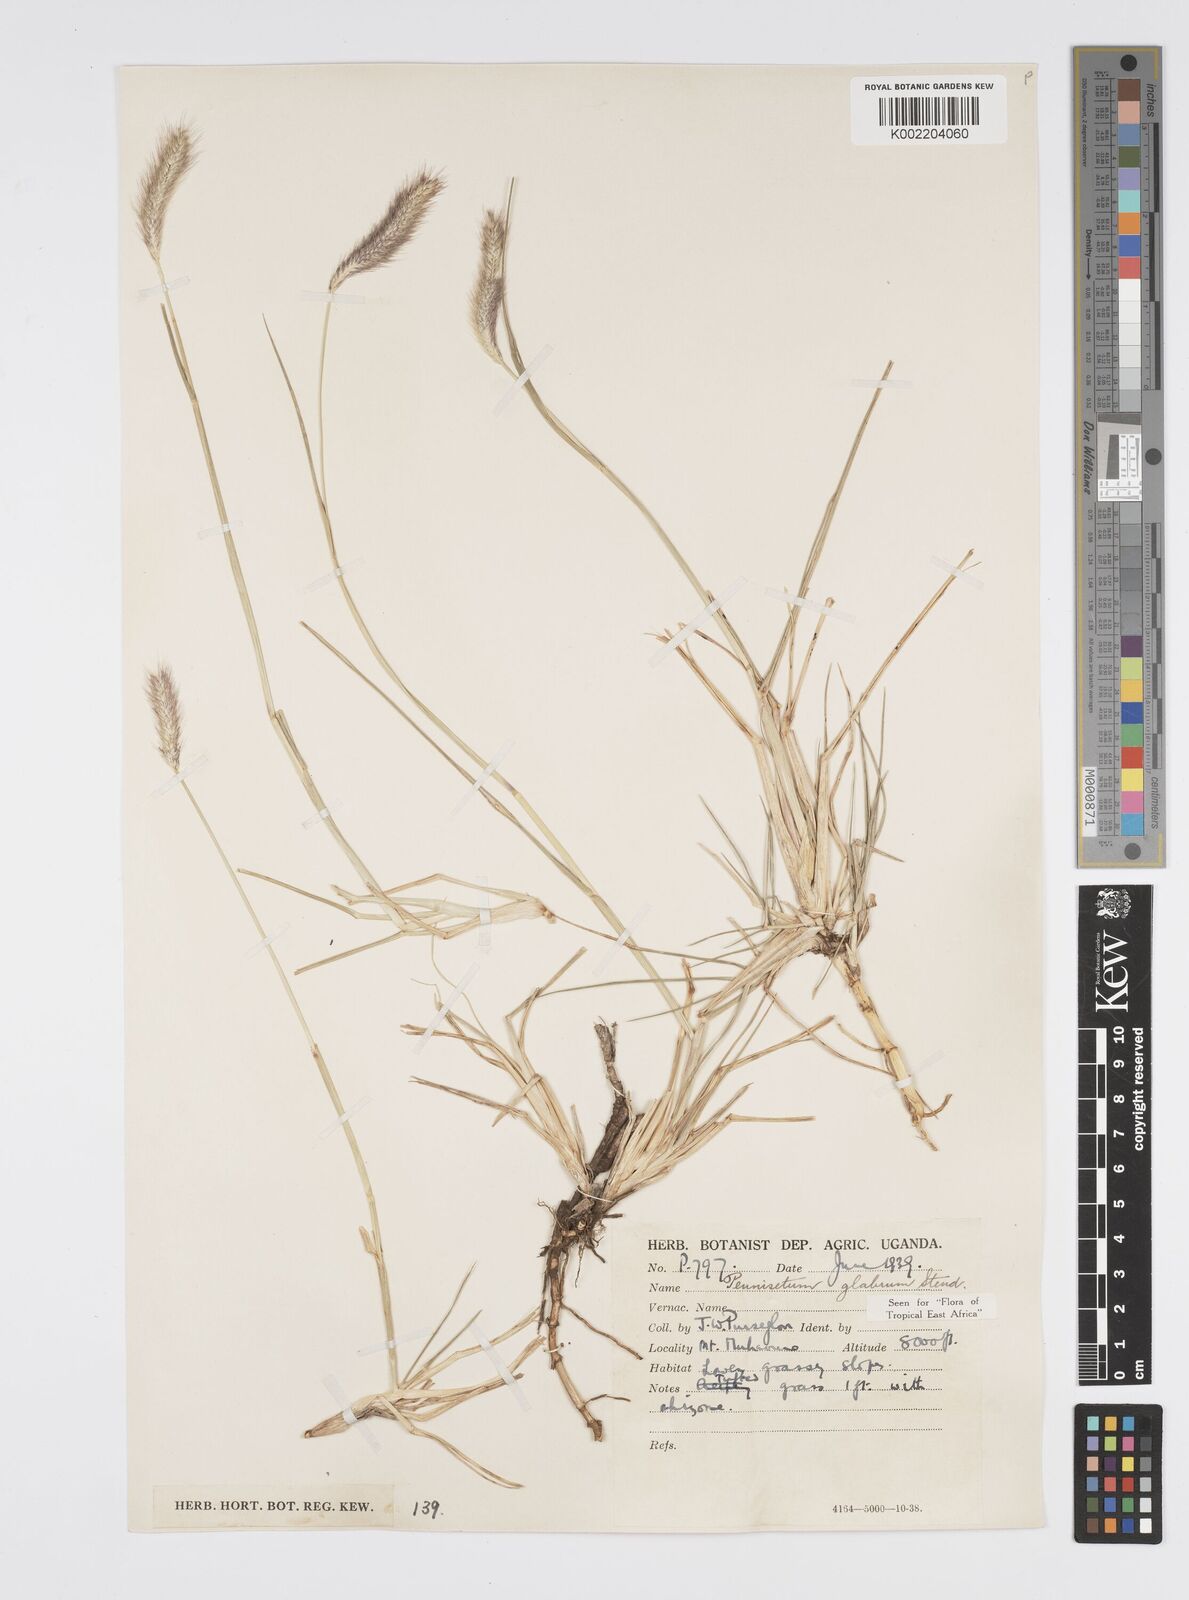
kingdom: Plantae
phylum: Tracheophyta
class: Liliopsida
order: Poales
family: Poaceae
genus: Cenchrus
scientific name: Cenchrus geniculatus
